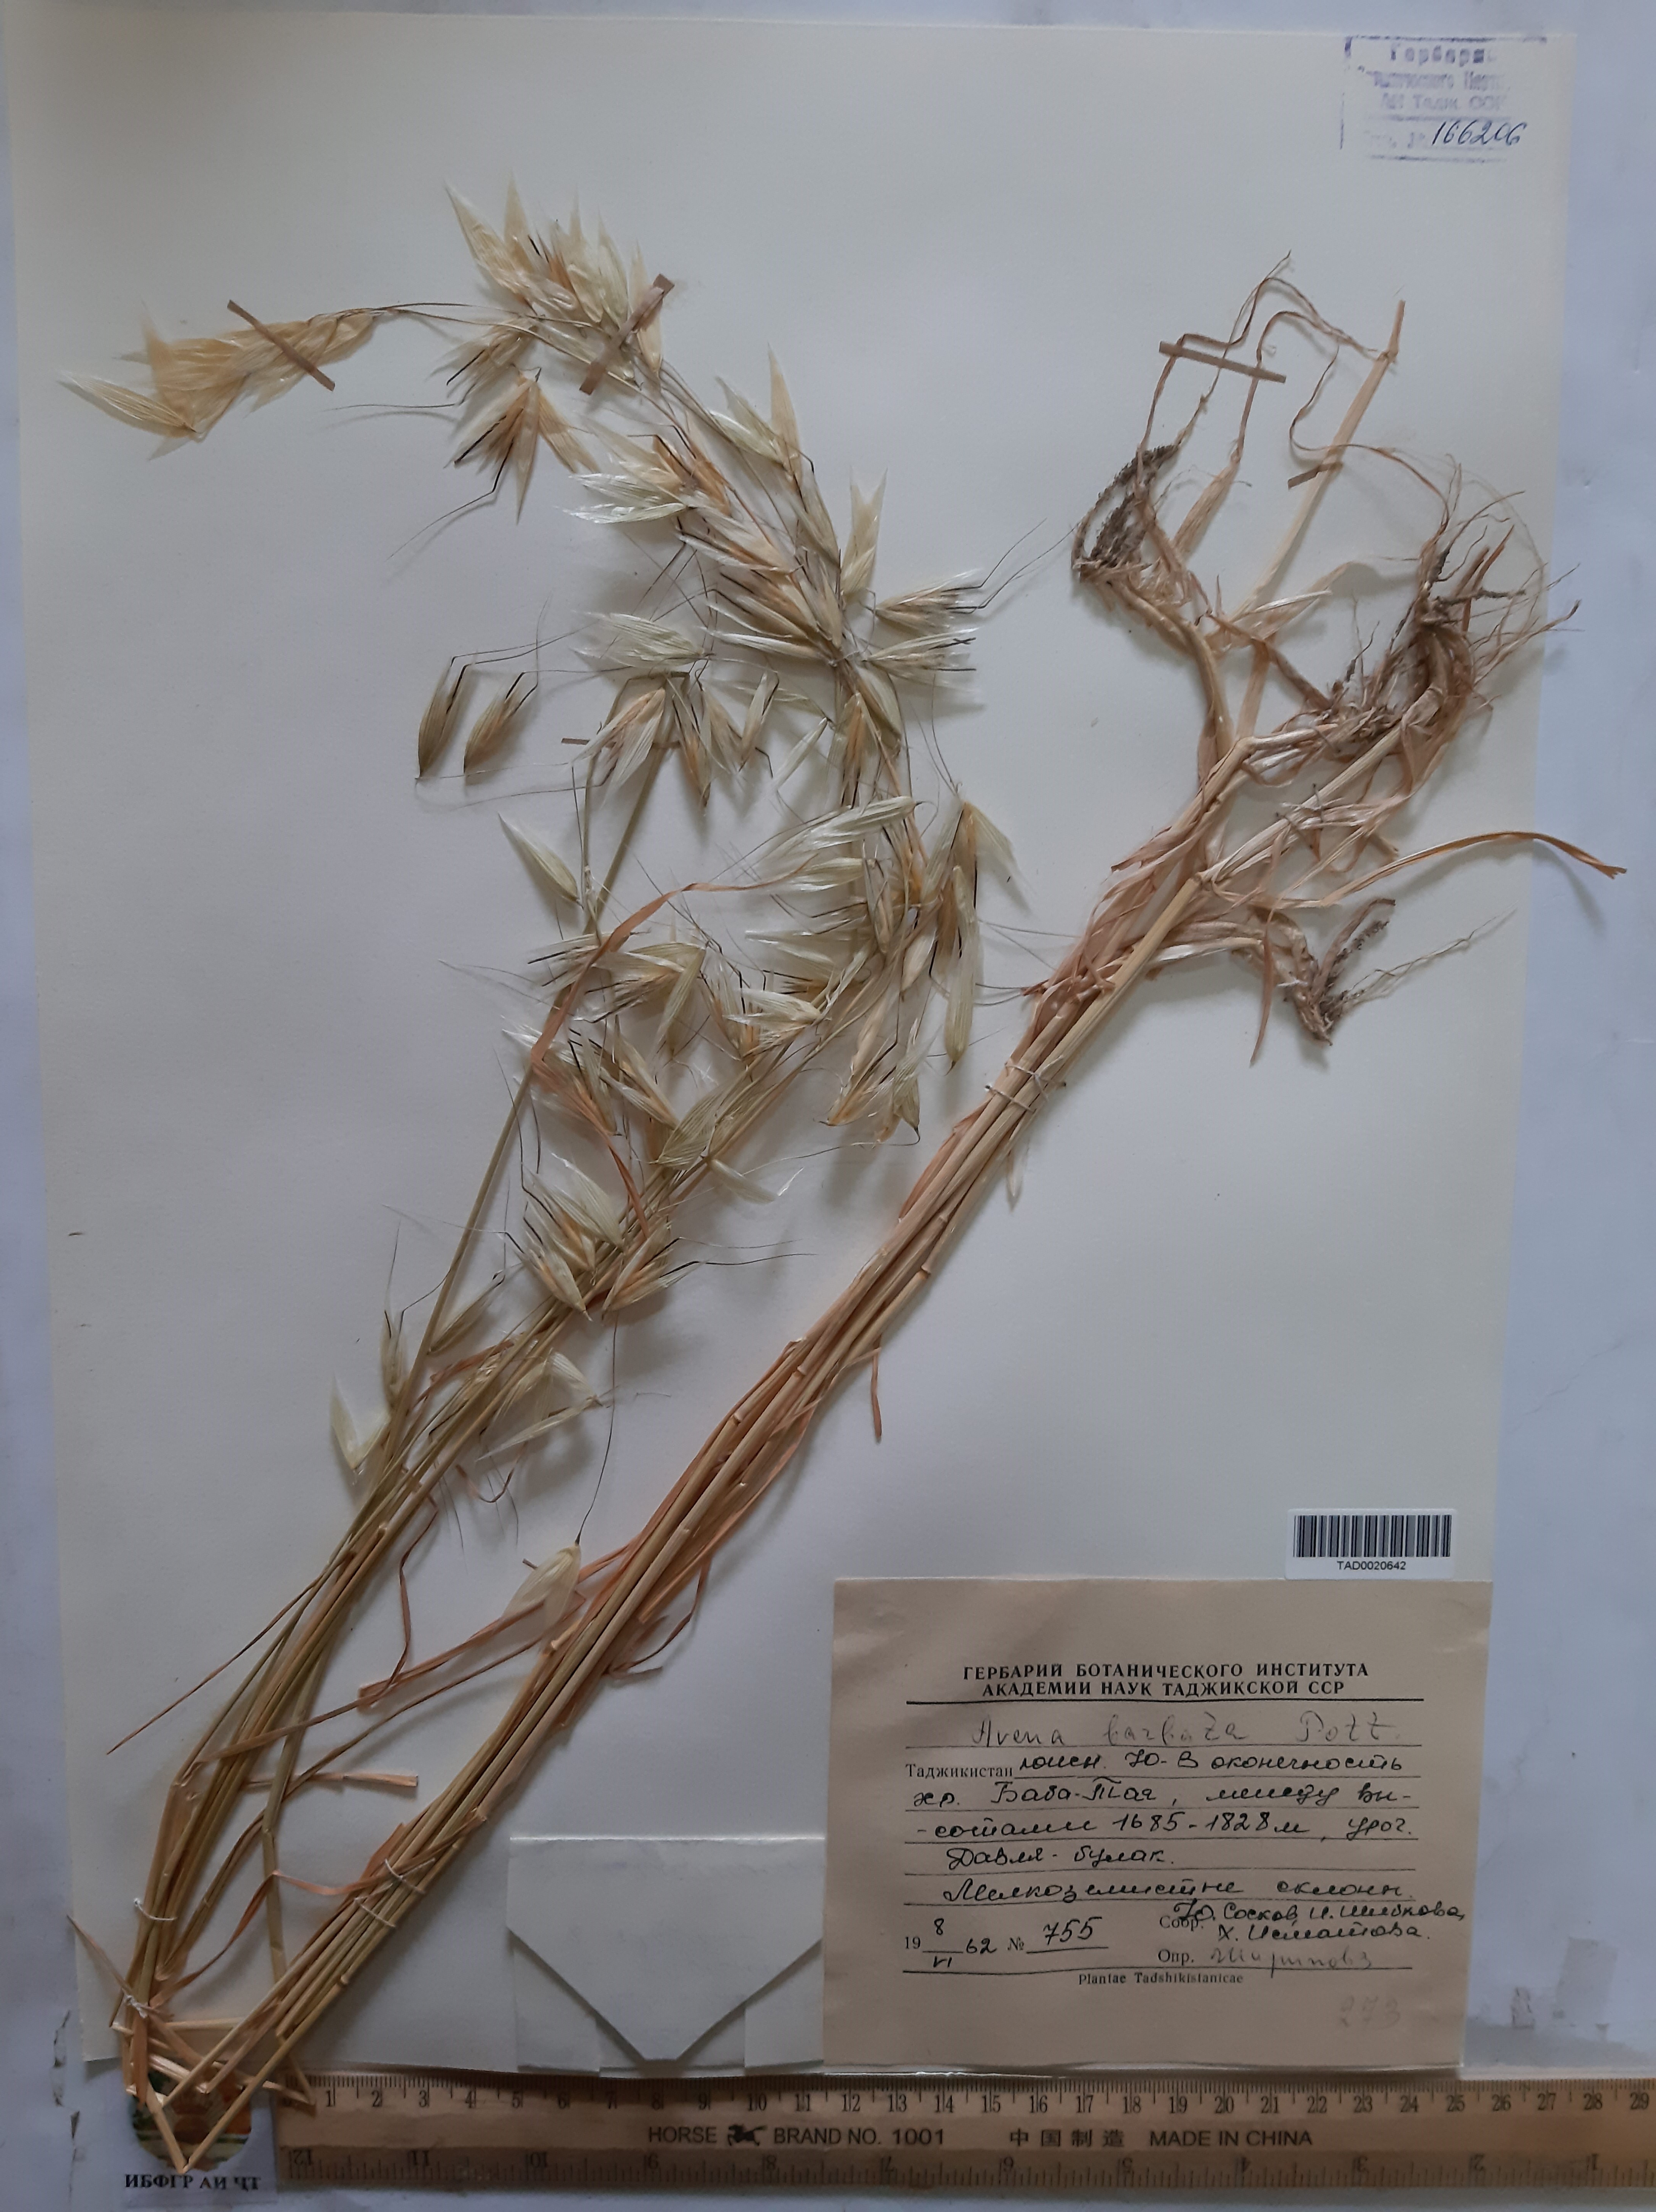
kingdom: Plantae
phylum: Tracheophyta
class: Liliopsida
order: Poales
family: Poaceae
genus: Avena
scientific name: Avena barbata
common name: Slender oat
